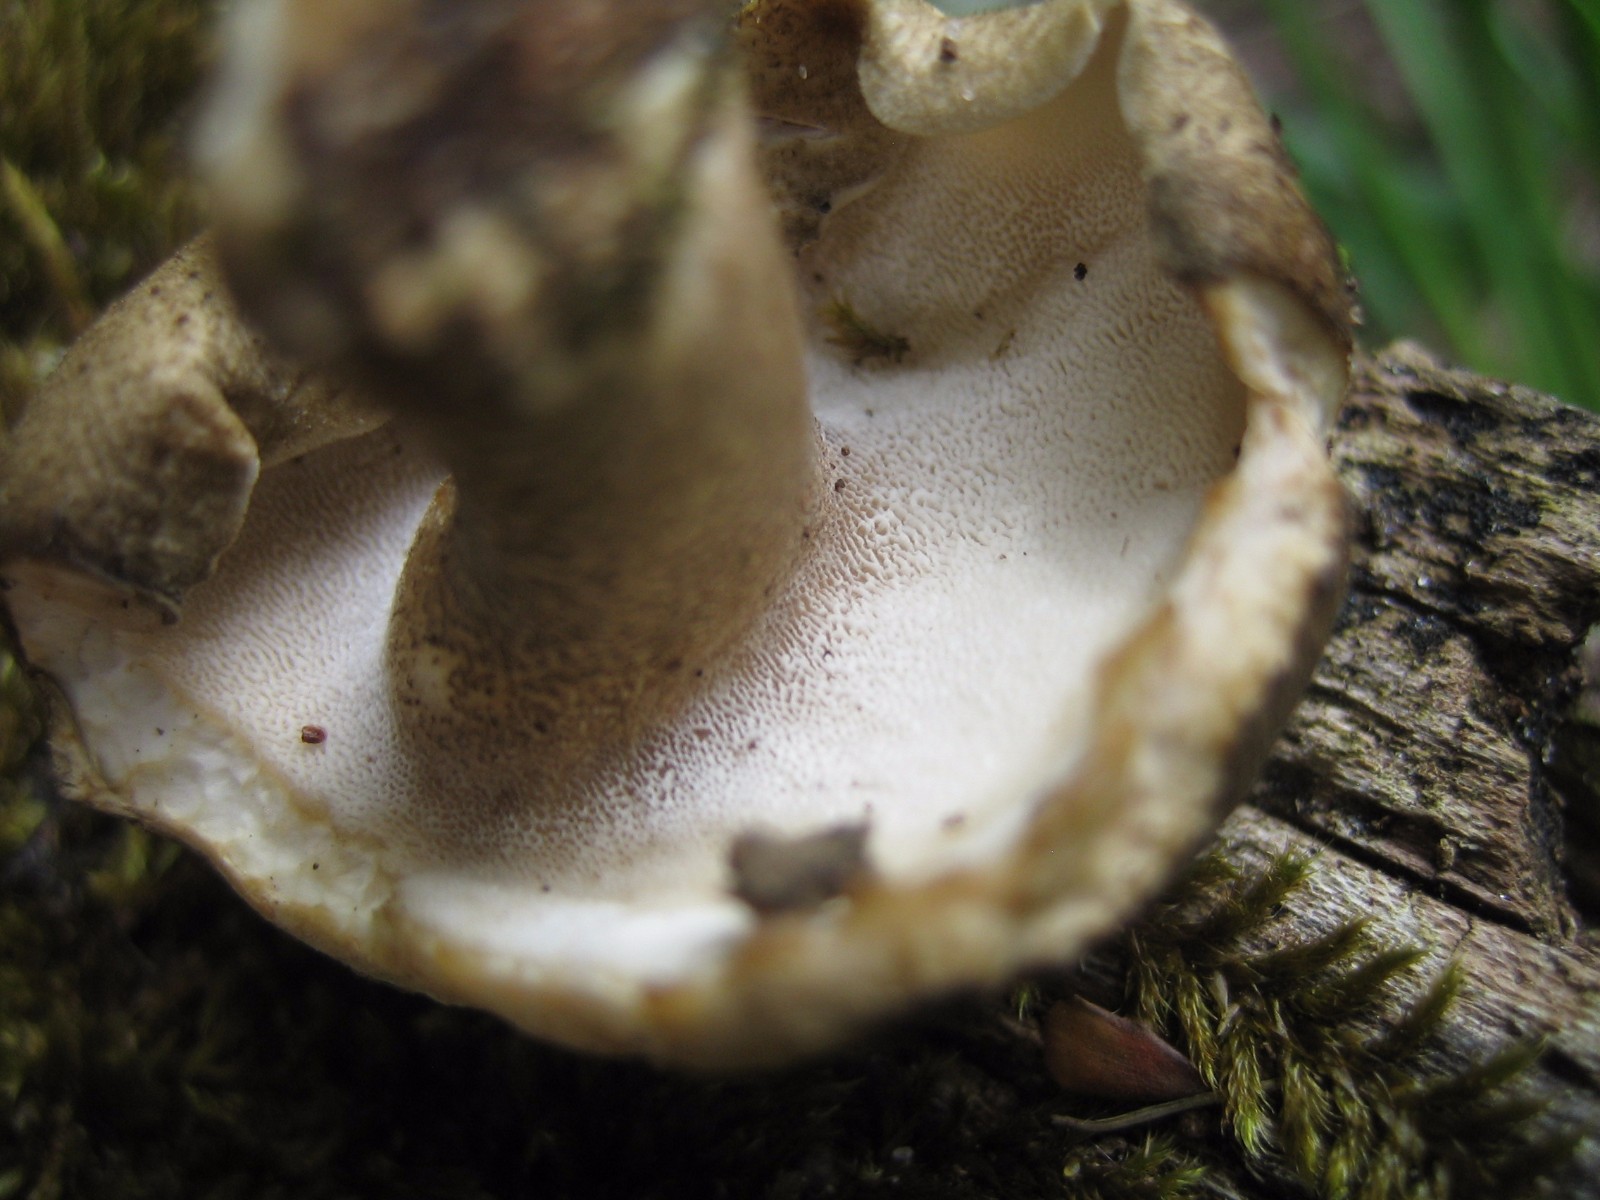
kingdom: Fungi
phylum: Basidiomycota
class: Agaricomycetes
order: Polyporales
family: Polyporaceae
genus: Lentinus
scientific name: Lentinus substrictus
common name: forårs-stilkporesvamp
